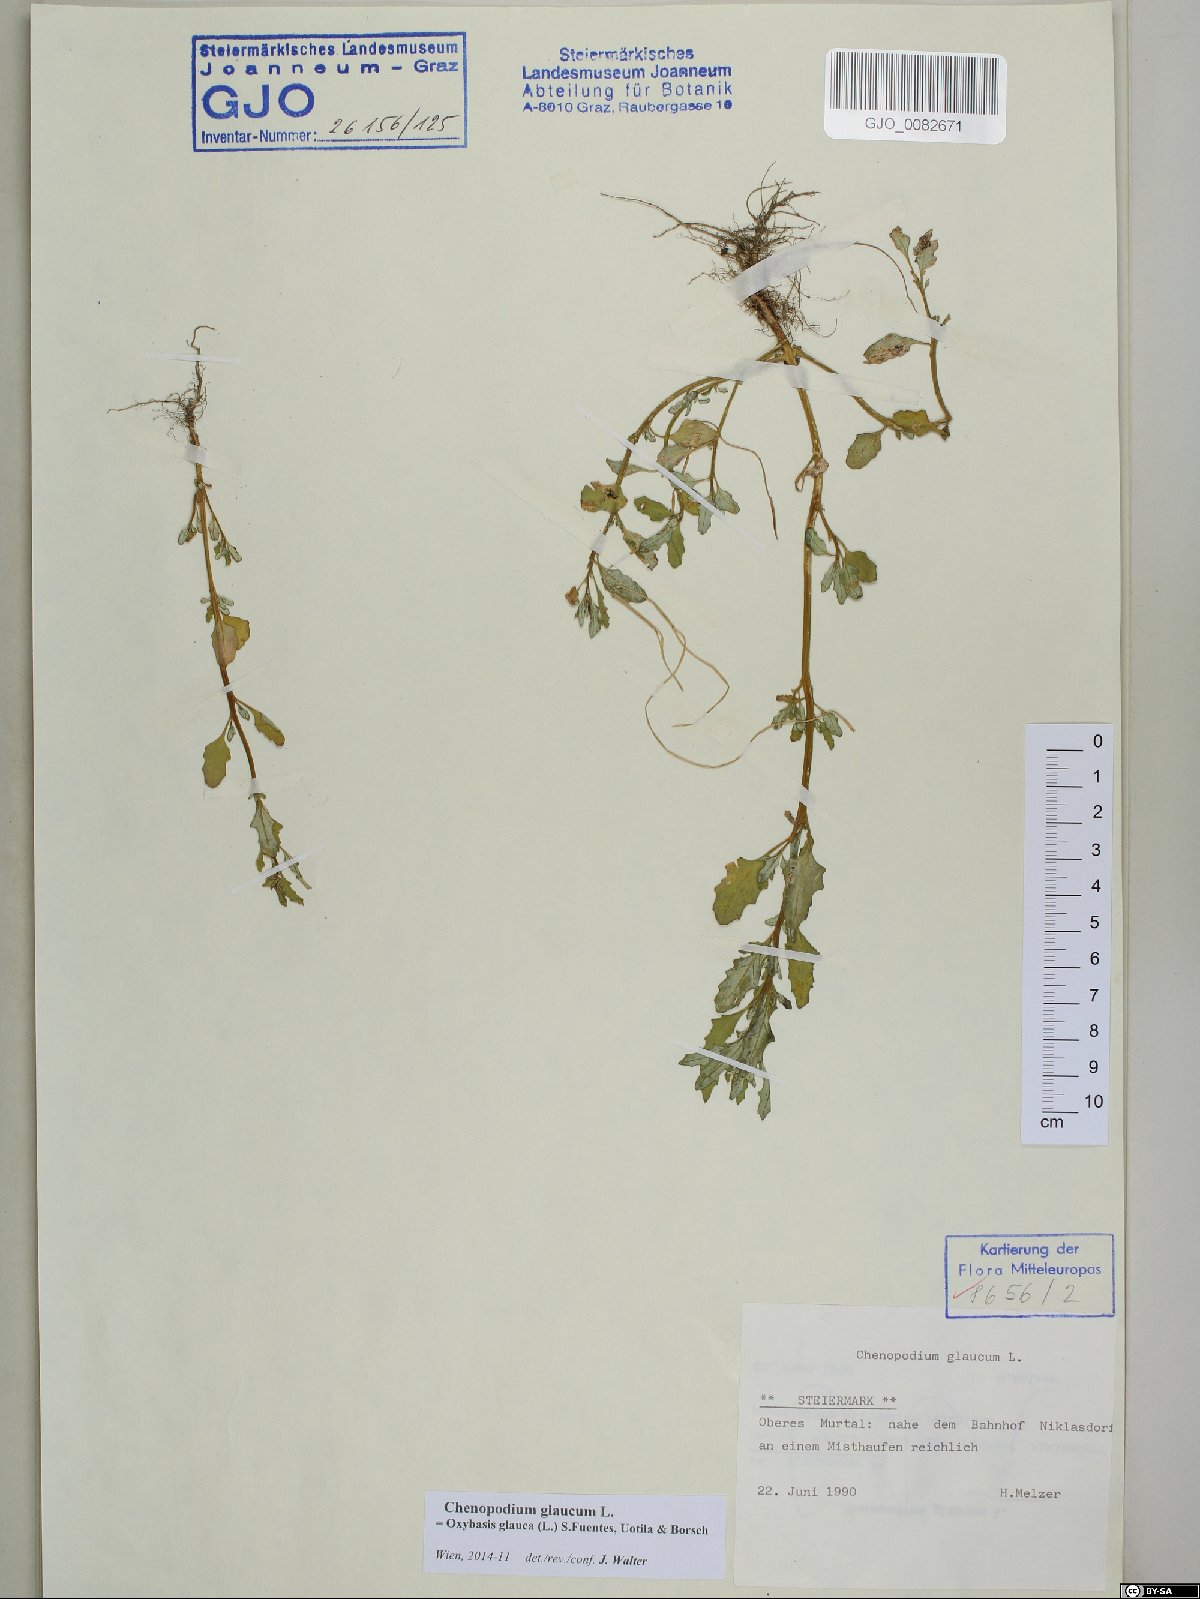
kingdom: Plantae
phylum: Tracheophyta
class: Magnoliopsida
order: Caryophyllales
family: Amaranthaceae
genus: Oxybasis
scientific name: Oxybasis glauca
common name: Glaucous goosefoot
